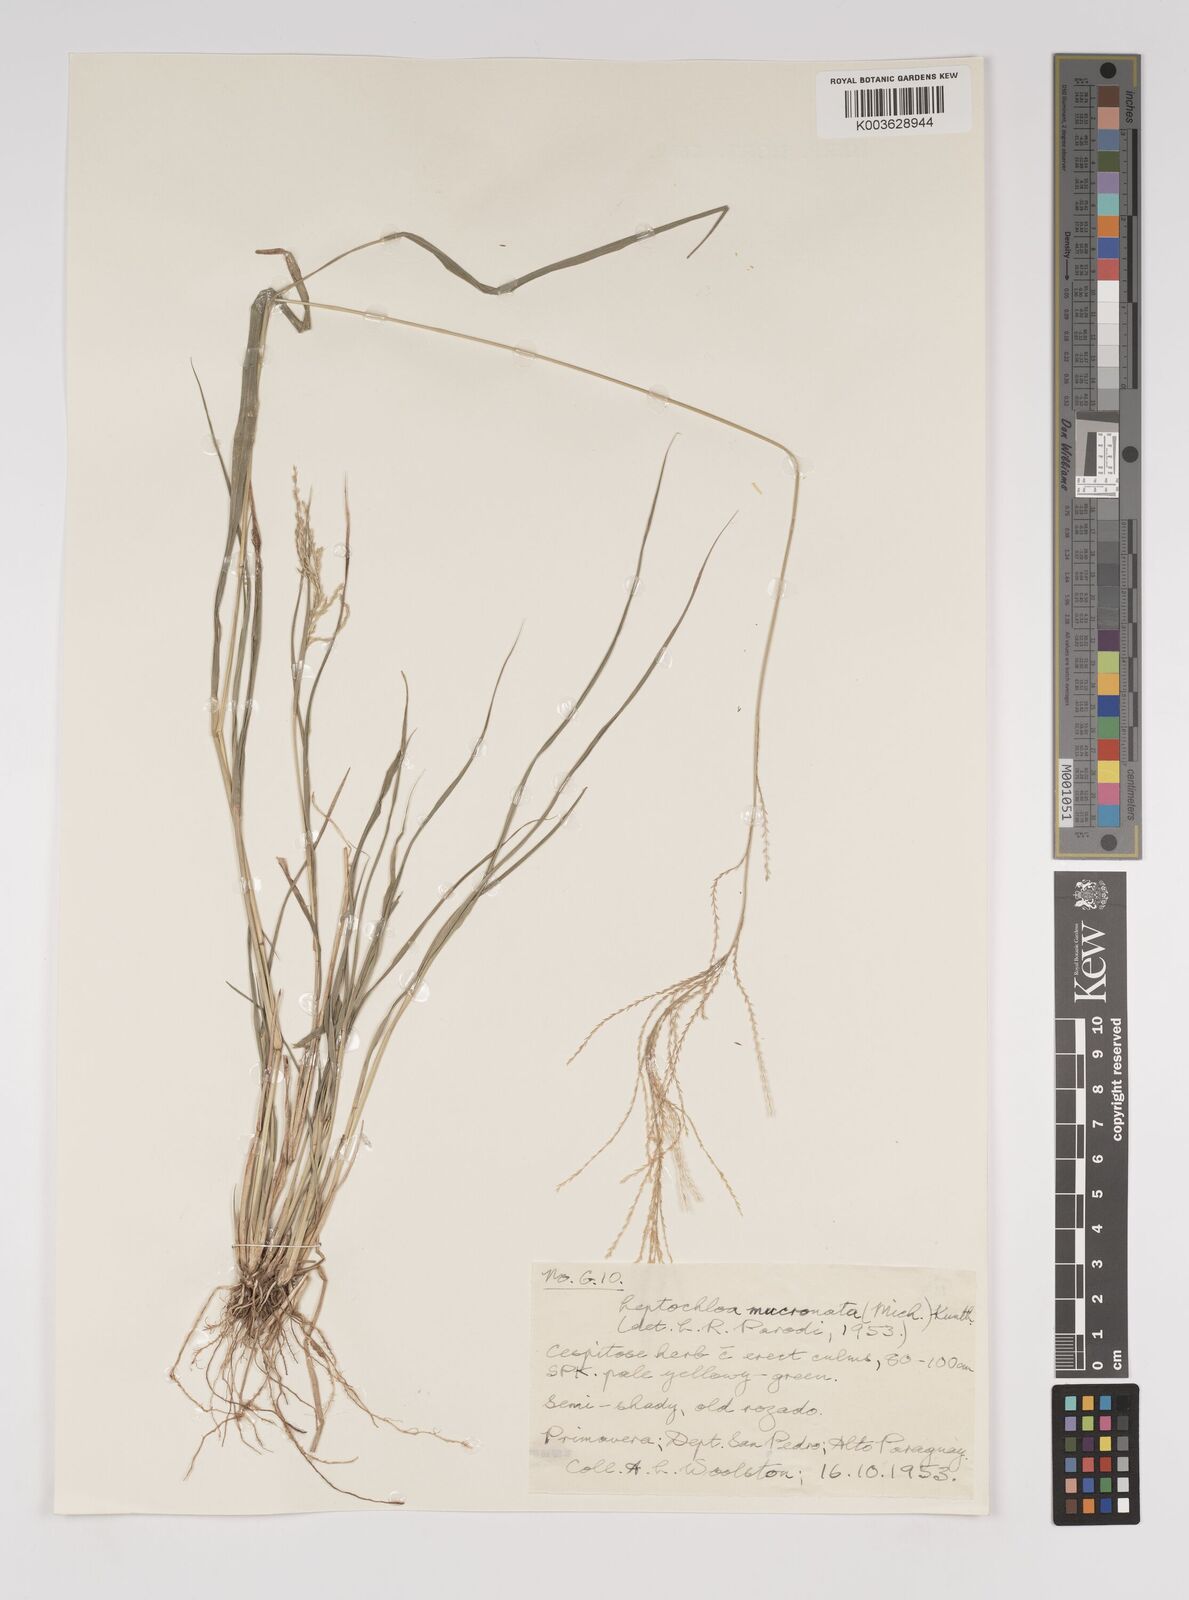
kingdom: Plantae
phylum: Tracheophyta
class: Liliopsida
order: Poales
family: Poaceae
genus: Leptochloa
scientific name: Leptochloa virgata
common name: Tropical sprangletop
